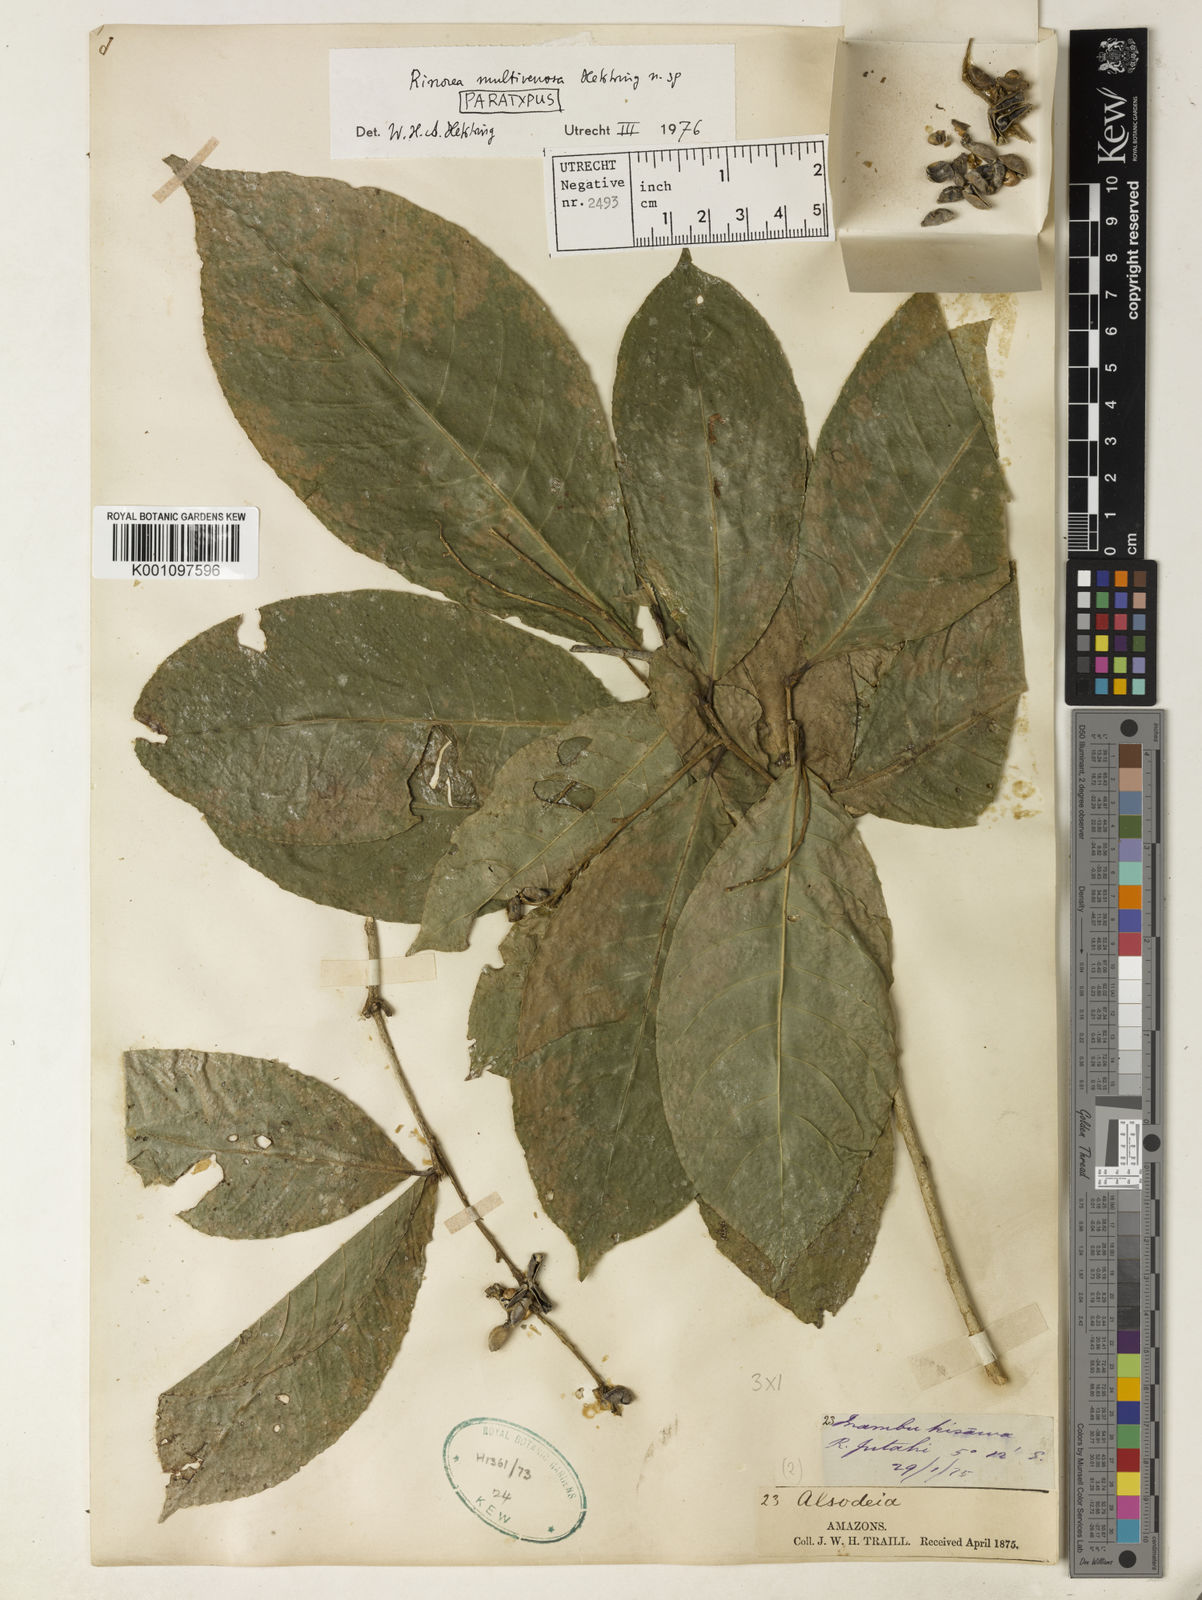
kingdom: Plantae
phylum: Tracheophyta
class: Magnoliopsida
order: Malpighiales
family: Violaceae
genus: Rinorea
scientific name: Rinorea multivenosa
